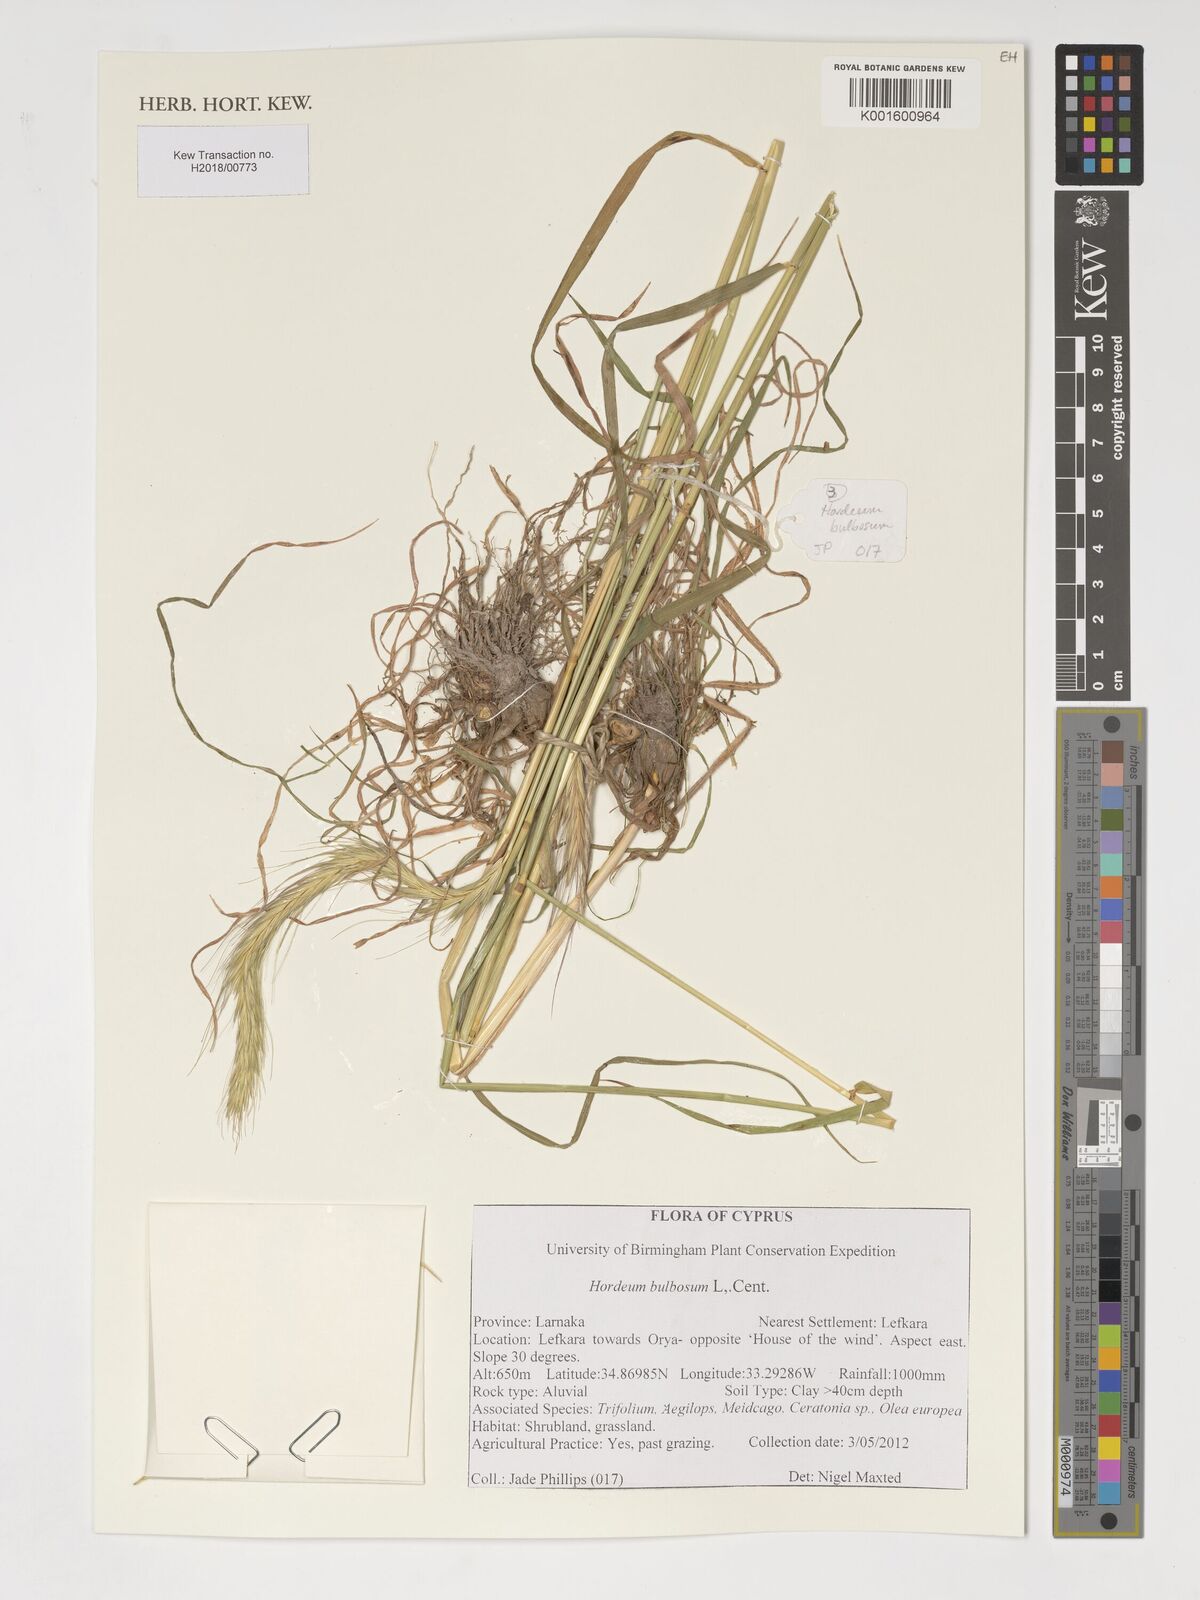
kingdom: Plantae
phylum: Tracheophyta
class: Liliopsida
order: Poales
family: Poaceae
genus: Hordeum
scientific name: Hordeum bulbosum
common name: Bulbous barley
